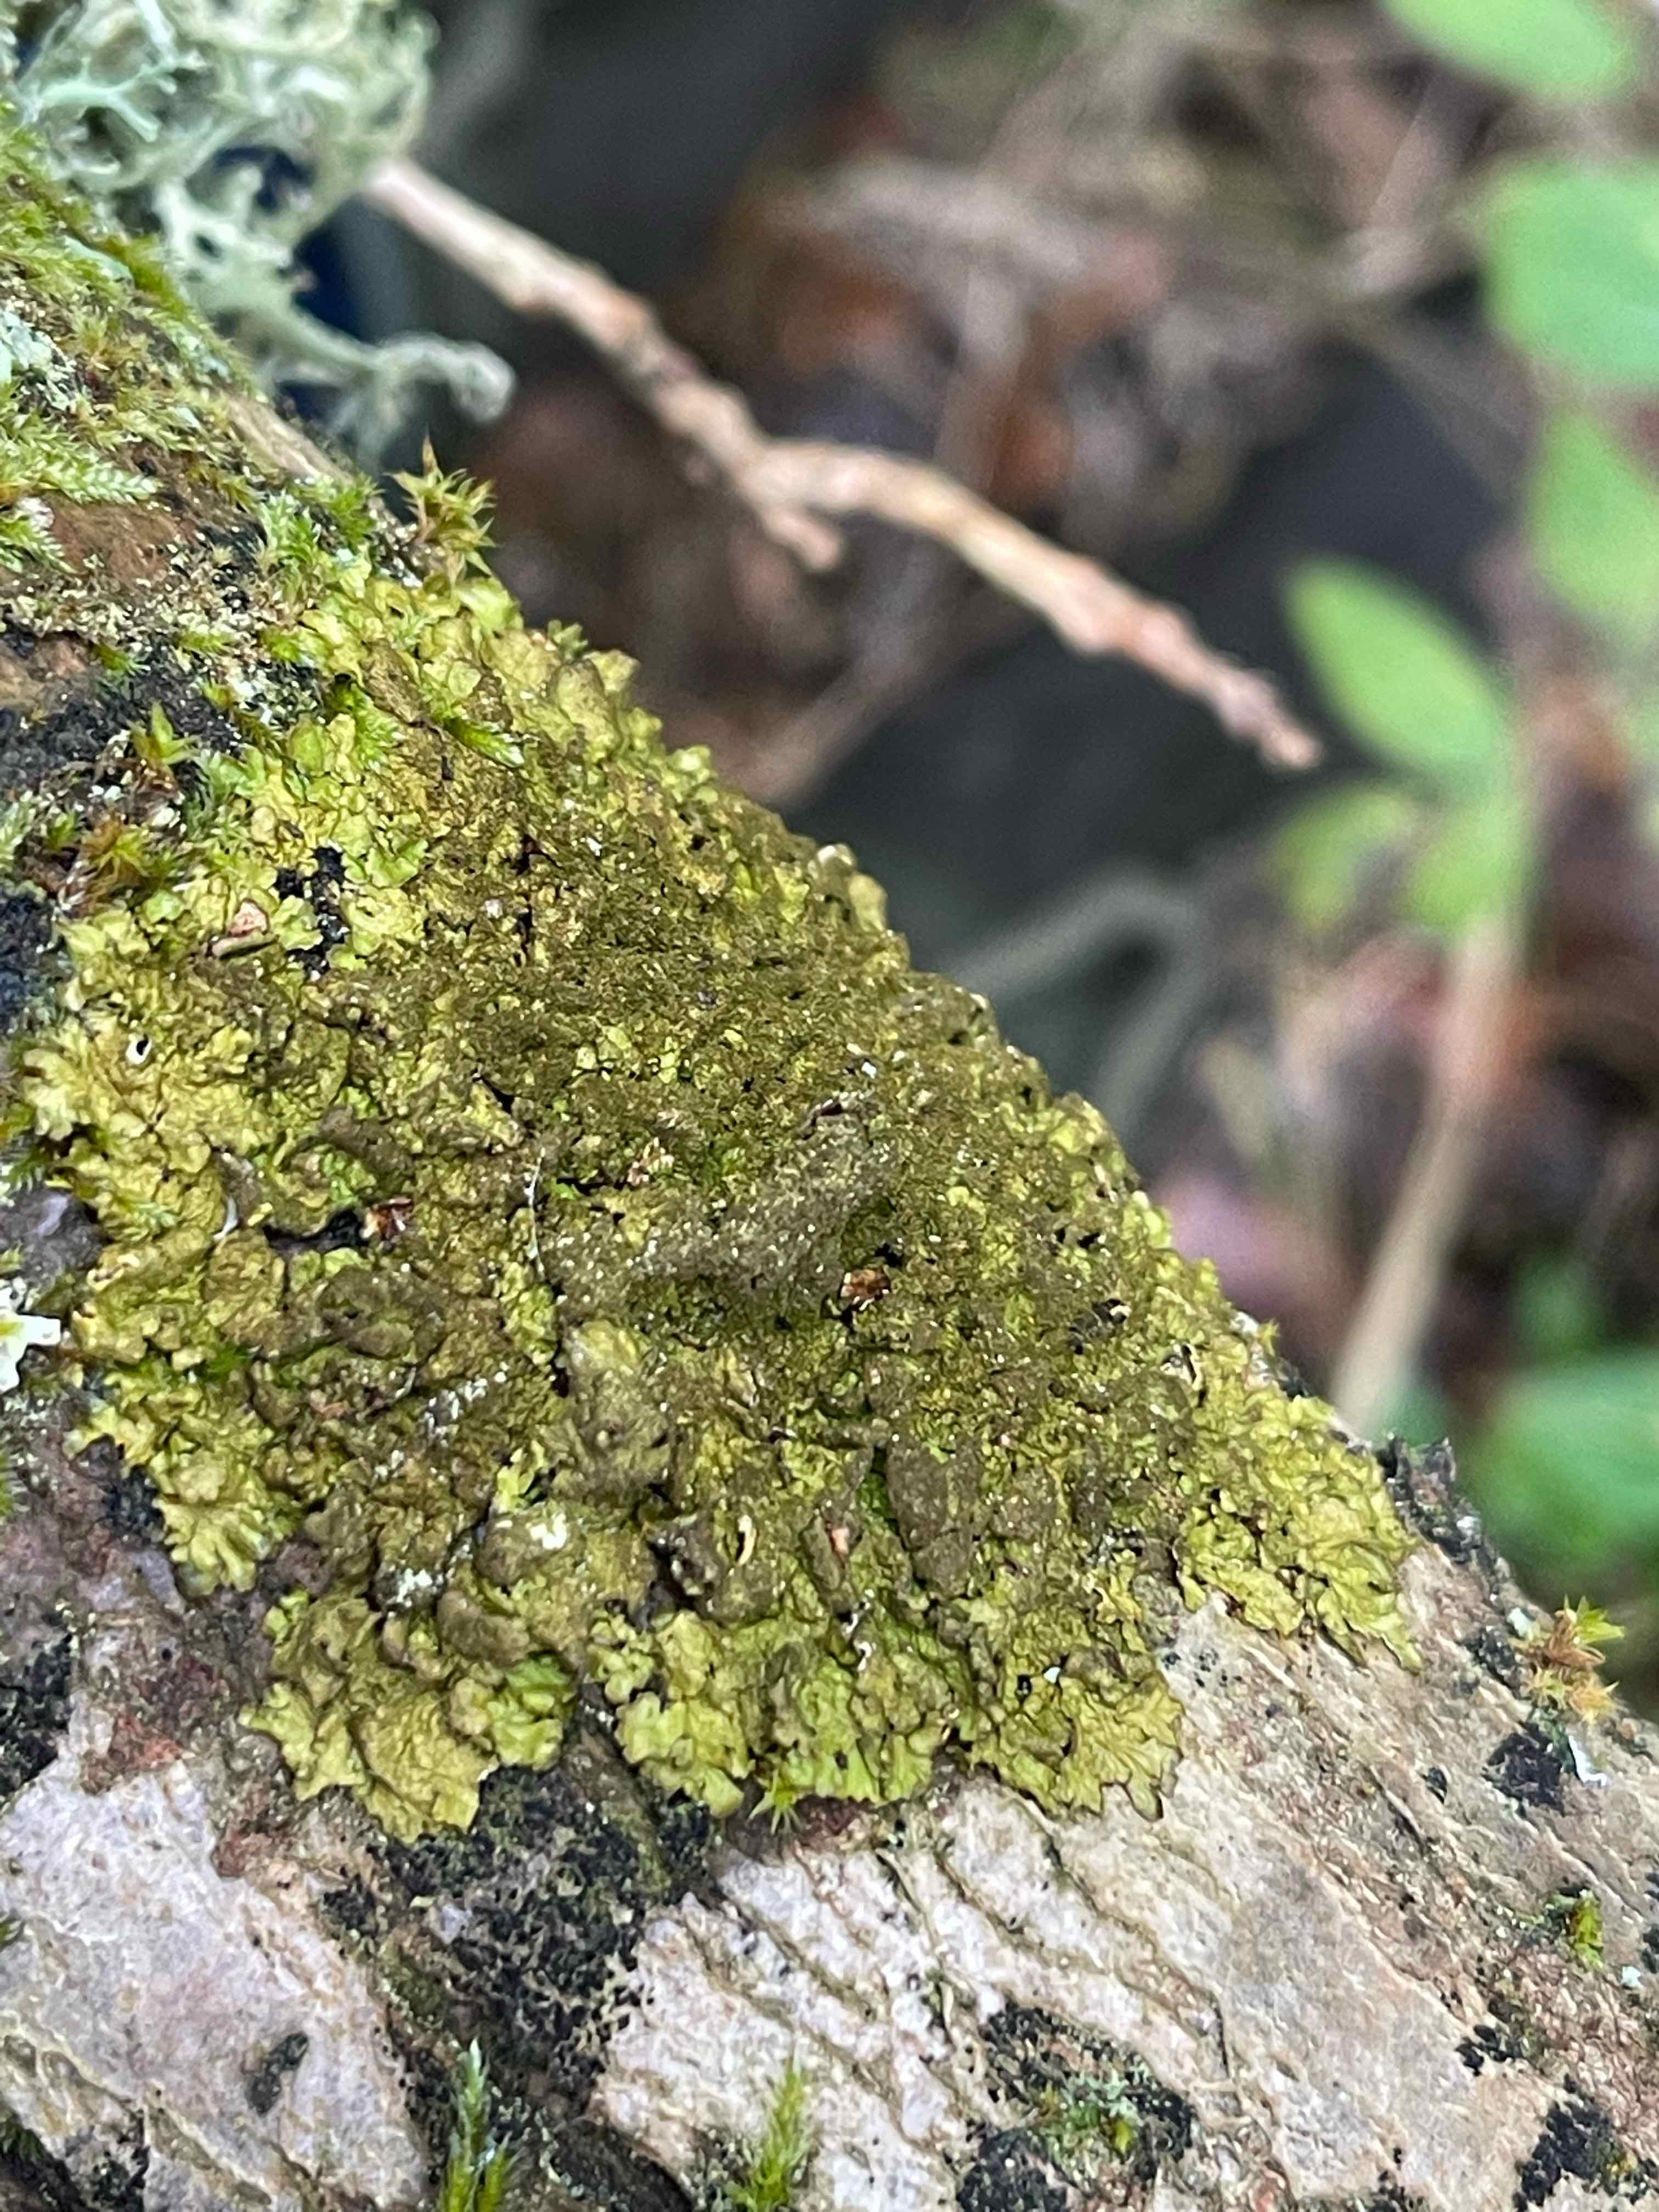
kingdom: Fungi
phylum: Ascomycota
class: Lecanoromycetes
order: Lecanorales
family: Parmeliaceae
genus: Melanelixia
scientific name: Melanelixia glabratula
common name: glinsende skållav
